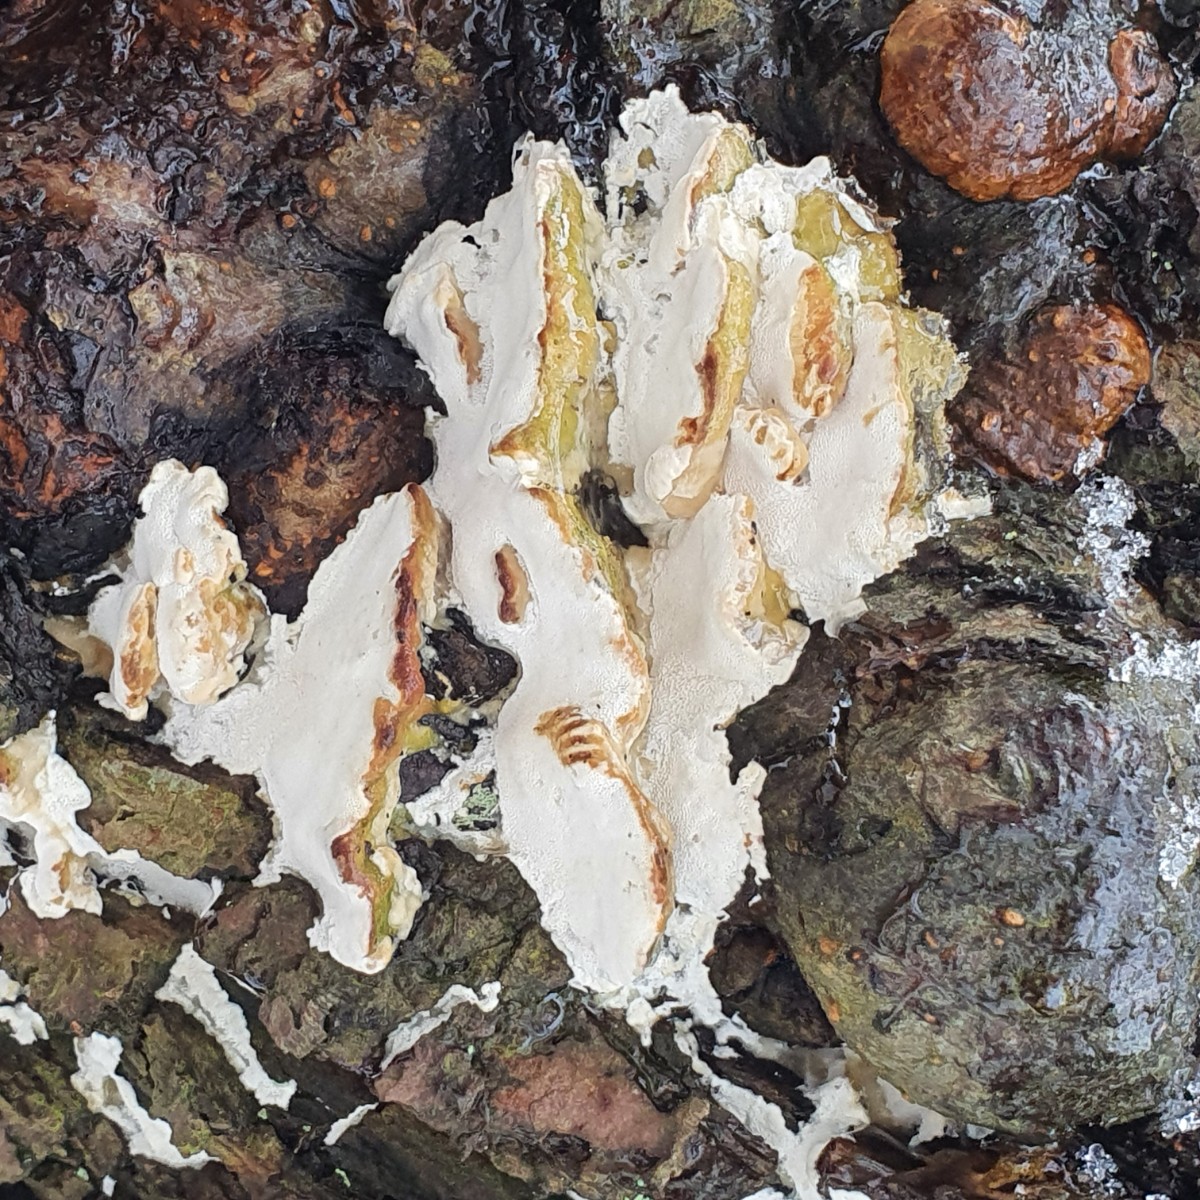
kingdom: Fungi
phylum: Basidiomycota
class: Agaricomycetes
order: Hymenochaetales
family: Oxyporaceae
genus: Oxyporus
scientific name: Oxyporus populinus
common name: sammenvokset trylleporesvamp
